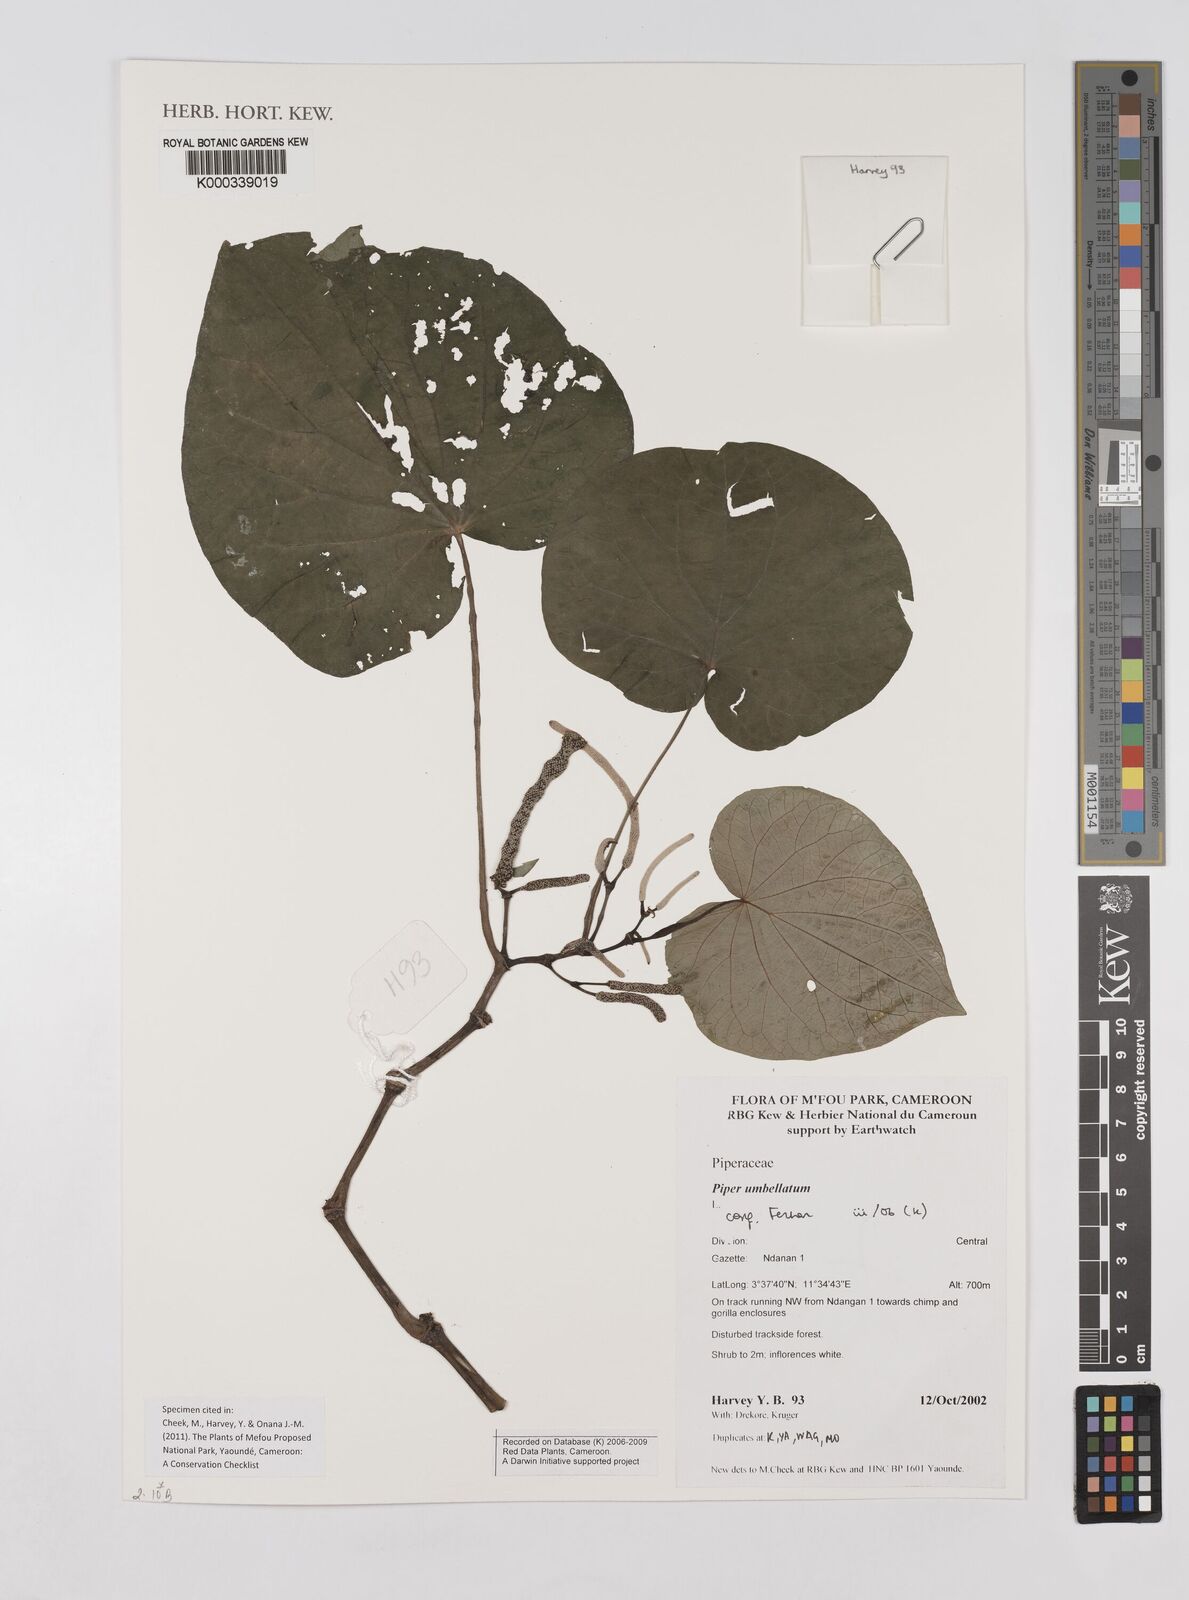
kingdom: Plantae
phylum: Tracheophyta
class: Magnoliopsida
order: Piperales
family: Piperaceae
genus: Piper
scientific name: Piper umbellatum
